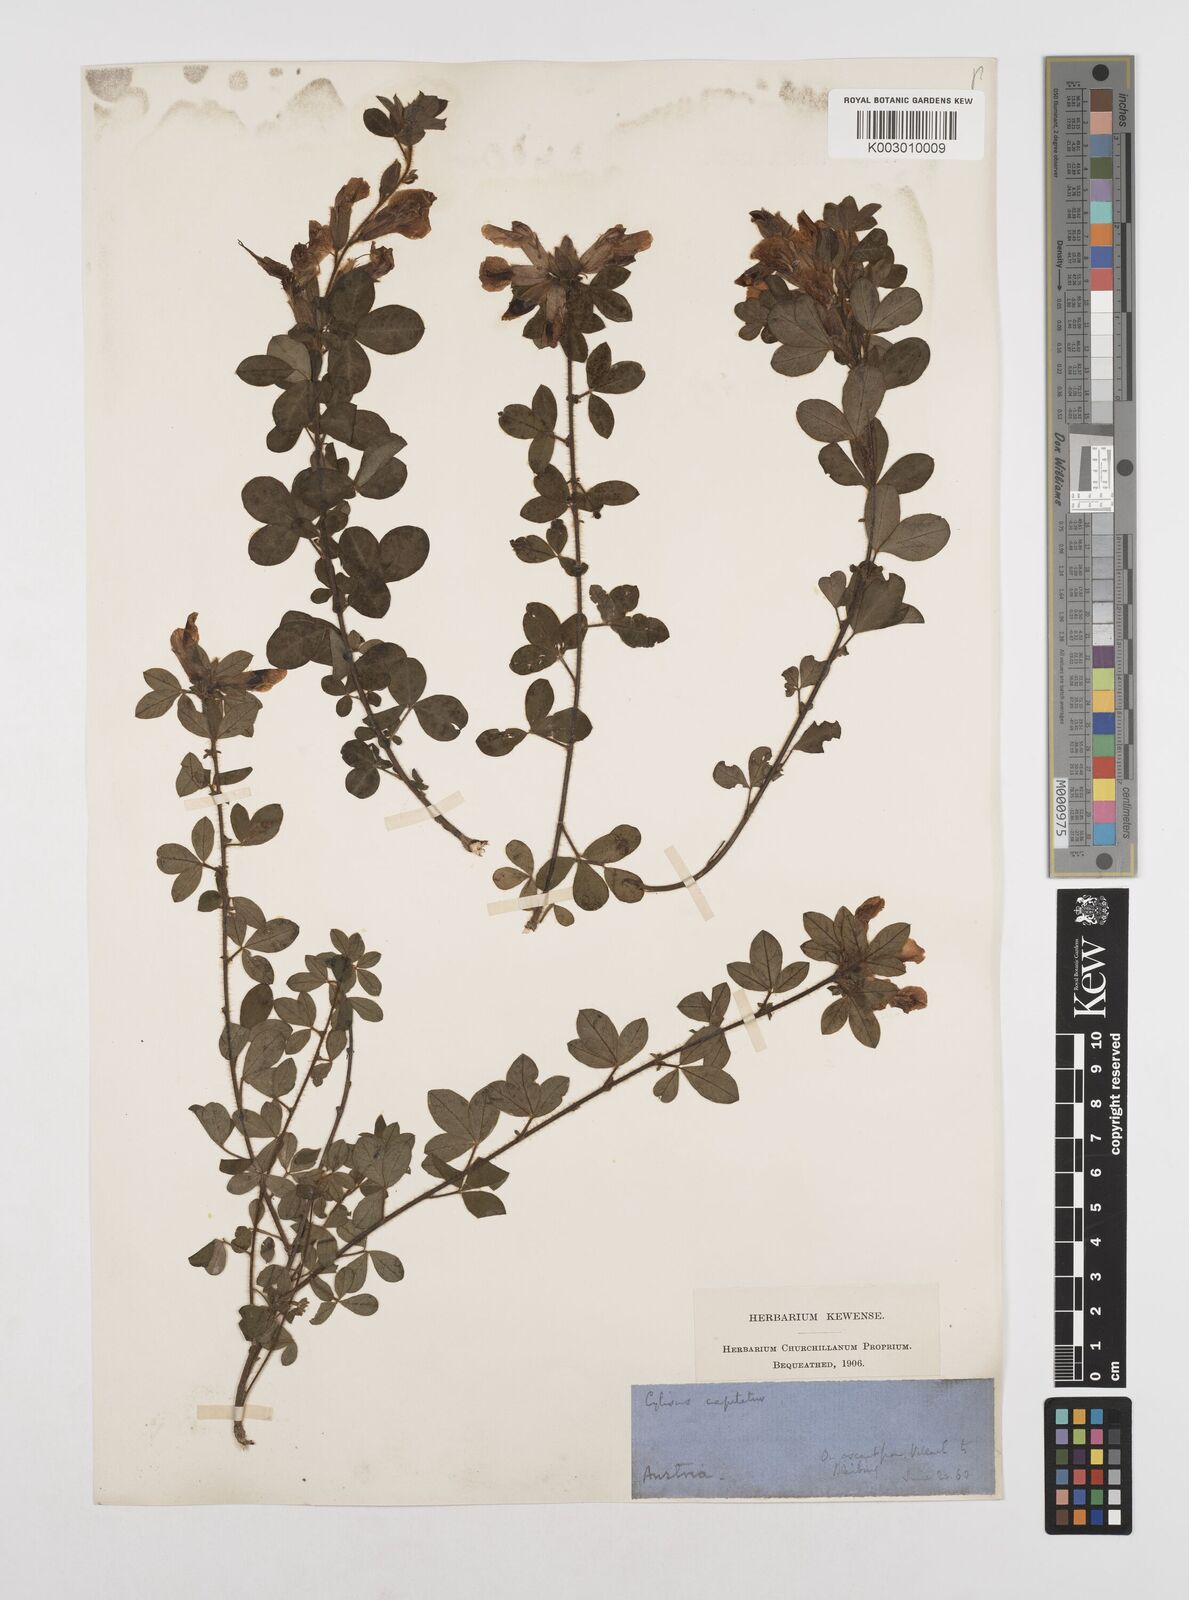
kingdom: Plantae
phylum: Tracheophyta
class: Magnoliopsida
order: Fabales
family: Fabaceae
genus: Chamaecytisus
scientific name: Chamaecytisus hirsutus
